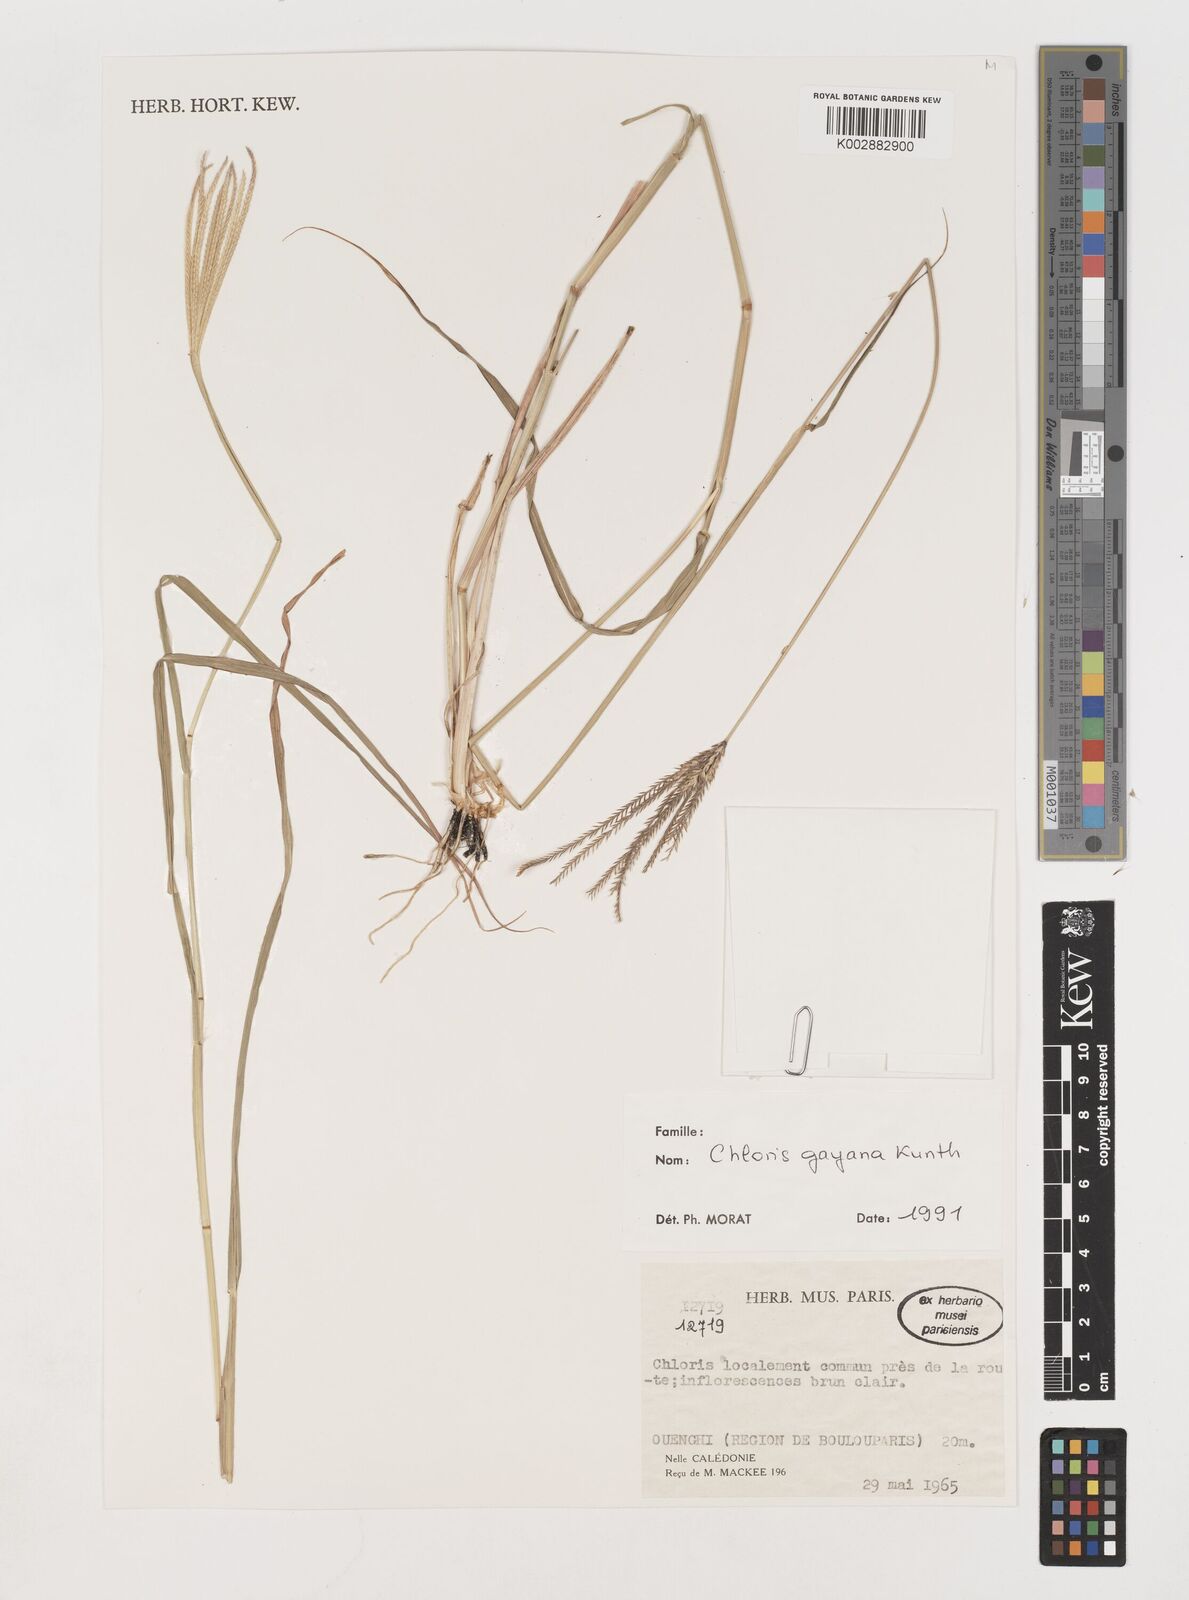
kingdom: Plantae
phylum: Tracheophyta
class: Liliopsida
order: Poales
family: Poaceae
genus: Chloris
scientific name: Chloris gayana
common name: Rhodes grass
